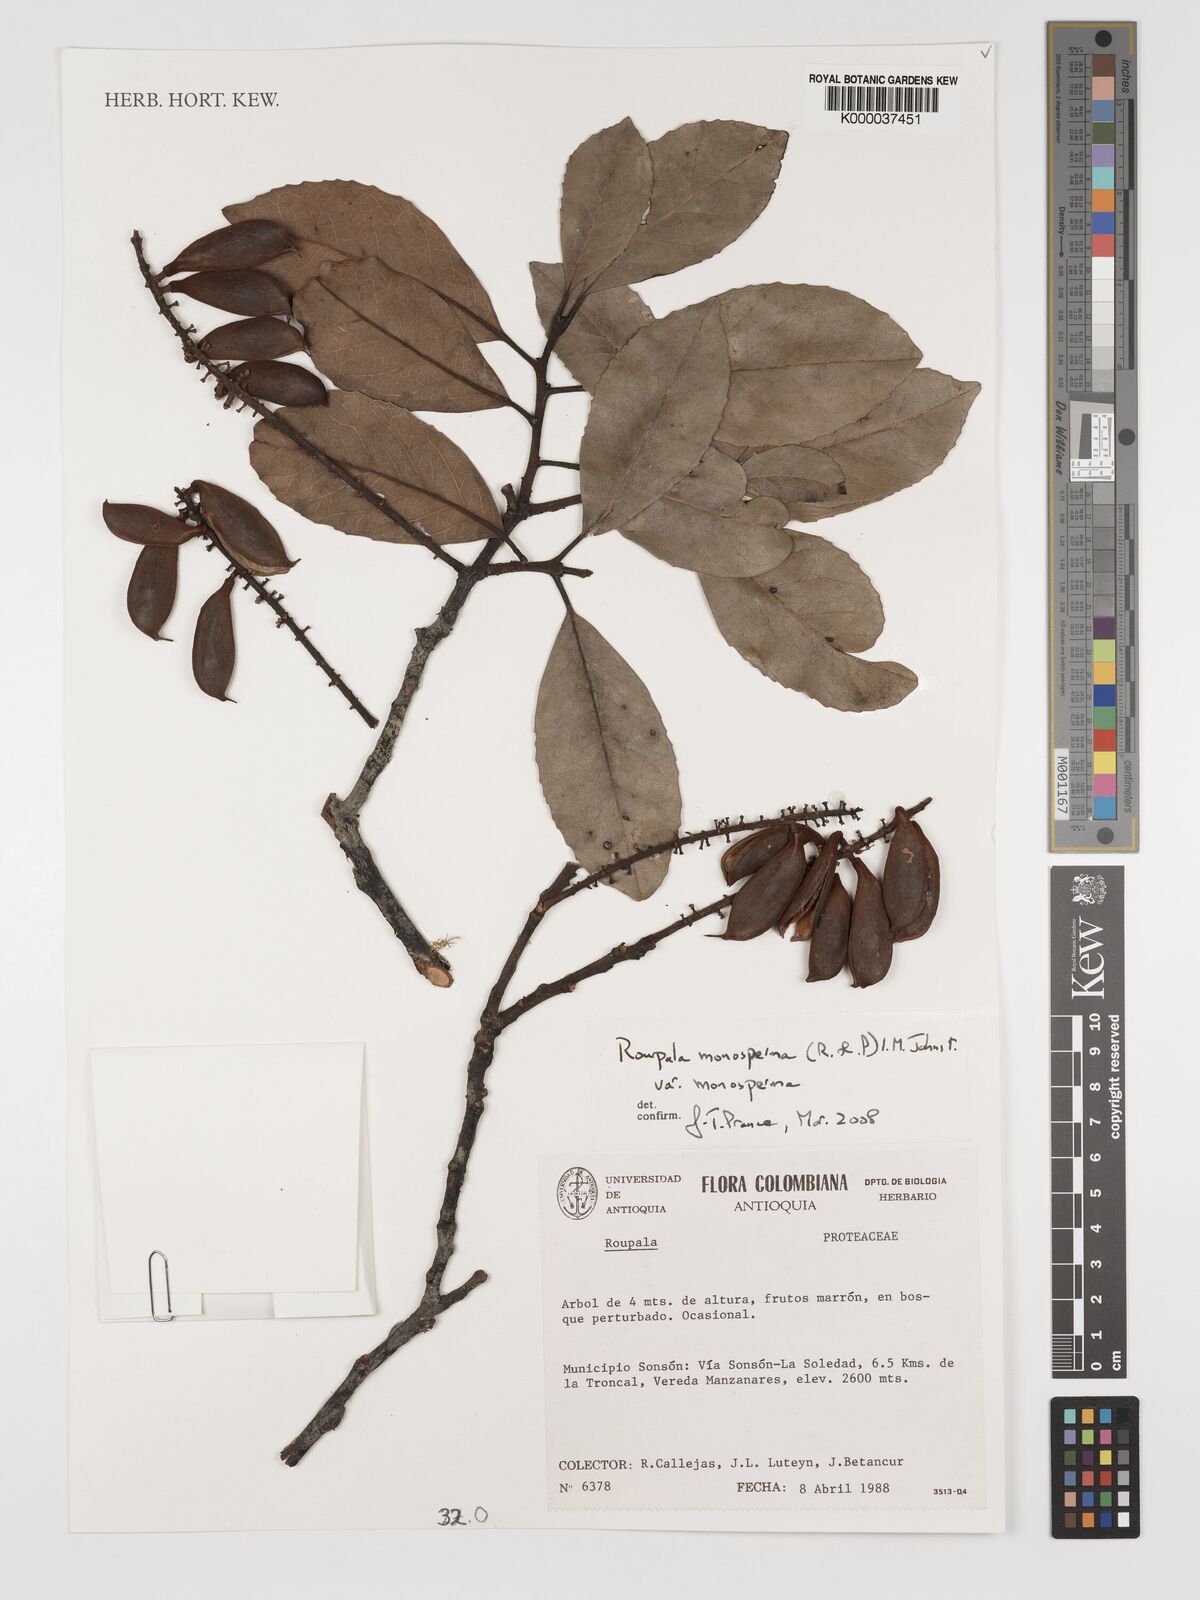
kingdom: Plantae
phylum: Tracheophyta
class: Magnoliopsida
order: Proteales
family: Proteaceae
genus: Roupala
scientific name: Roupala monosperma
